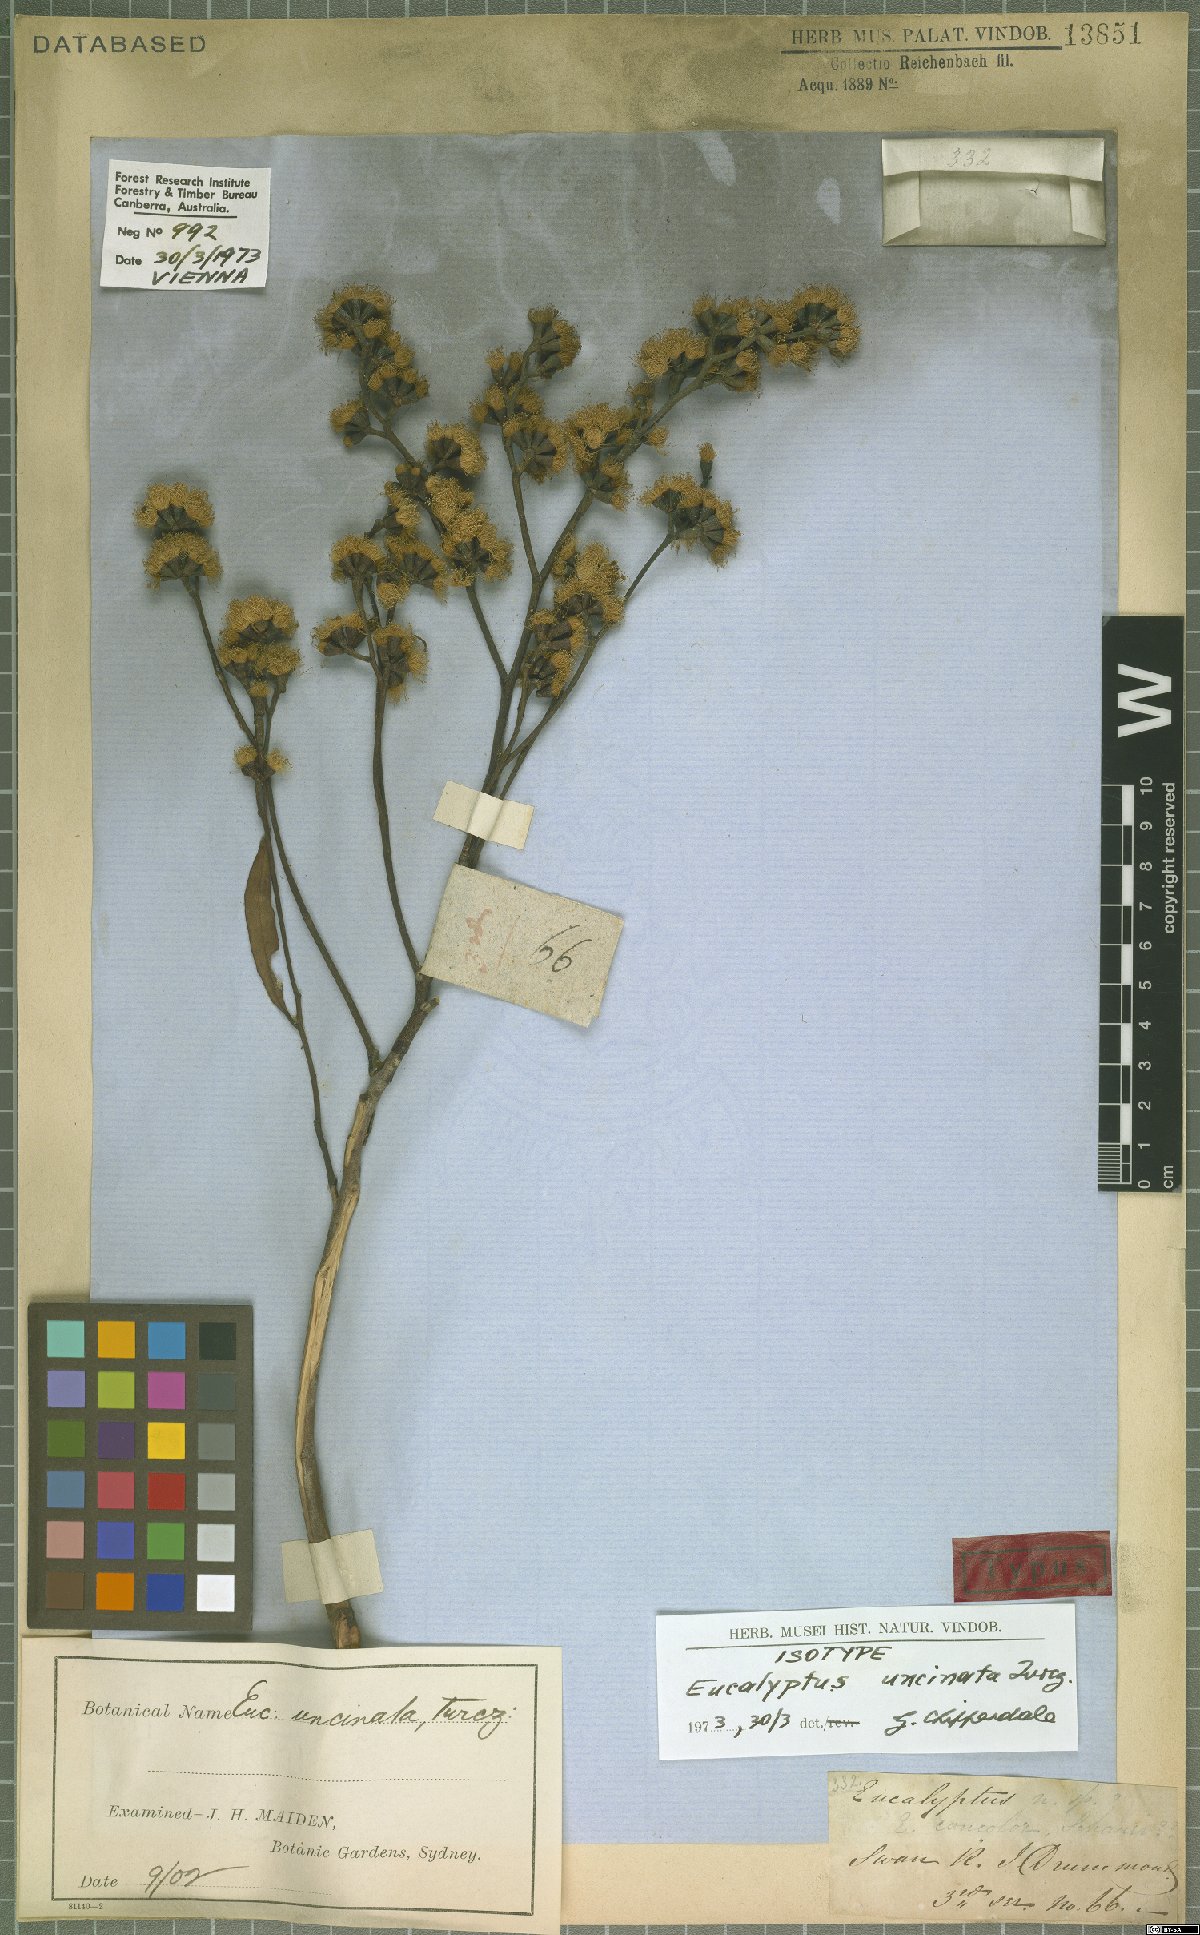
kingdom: Plantae
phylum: Tracheophyta
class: Magnoliopsida
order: Myrtales
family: Myrtaceae
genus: Eucalyptus
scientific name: Eucalyptus uncinata
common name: Hooked-leaved mallee
